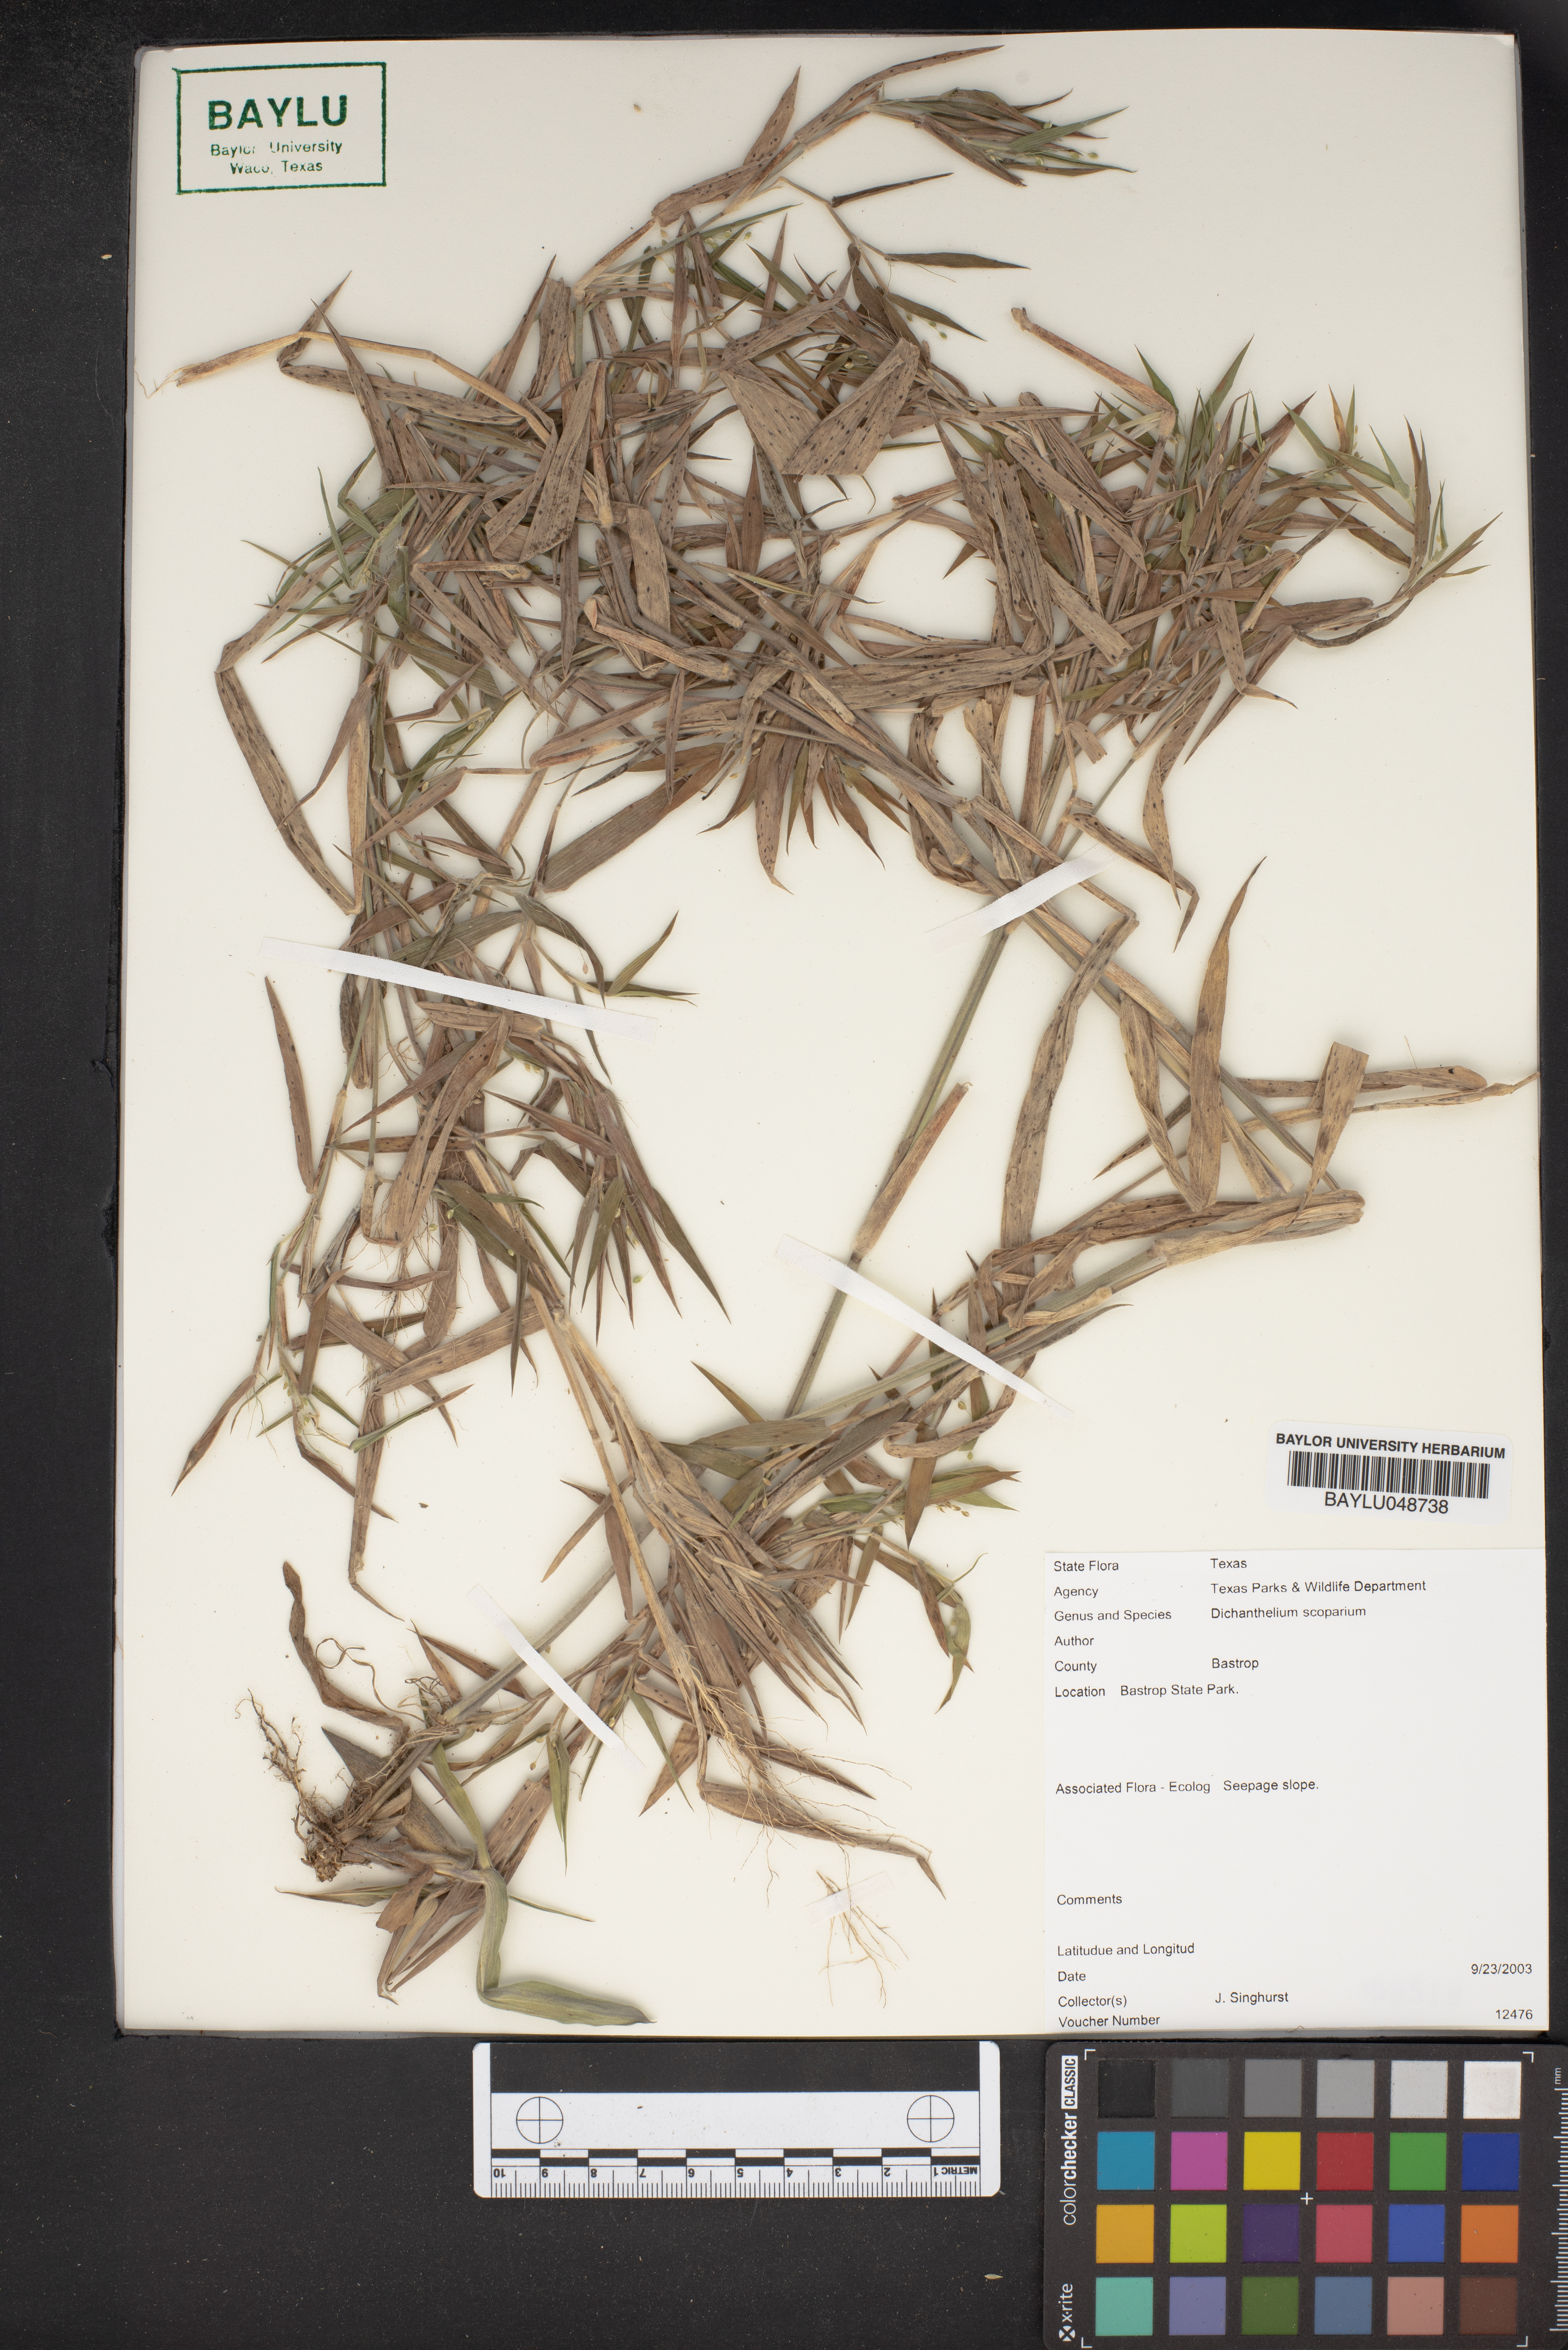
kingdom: Plantae
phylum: Tracheophyta
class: Liliopsida
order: Poales
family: Poaceae
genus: Dichanthelium
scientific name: Dichanthelium scoparium
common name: Velvety panic grass
